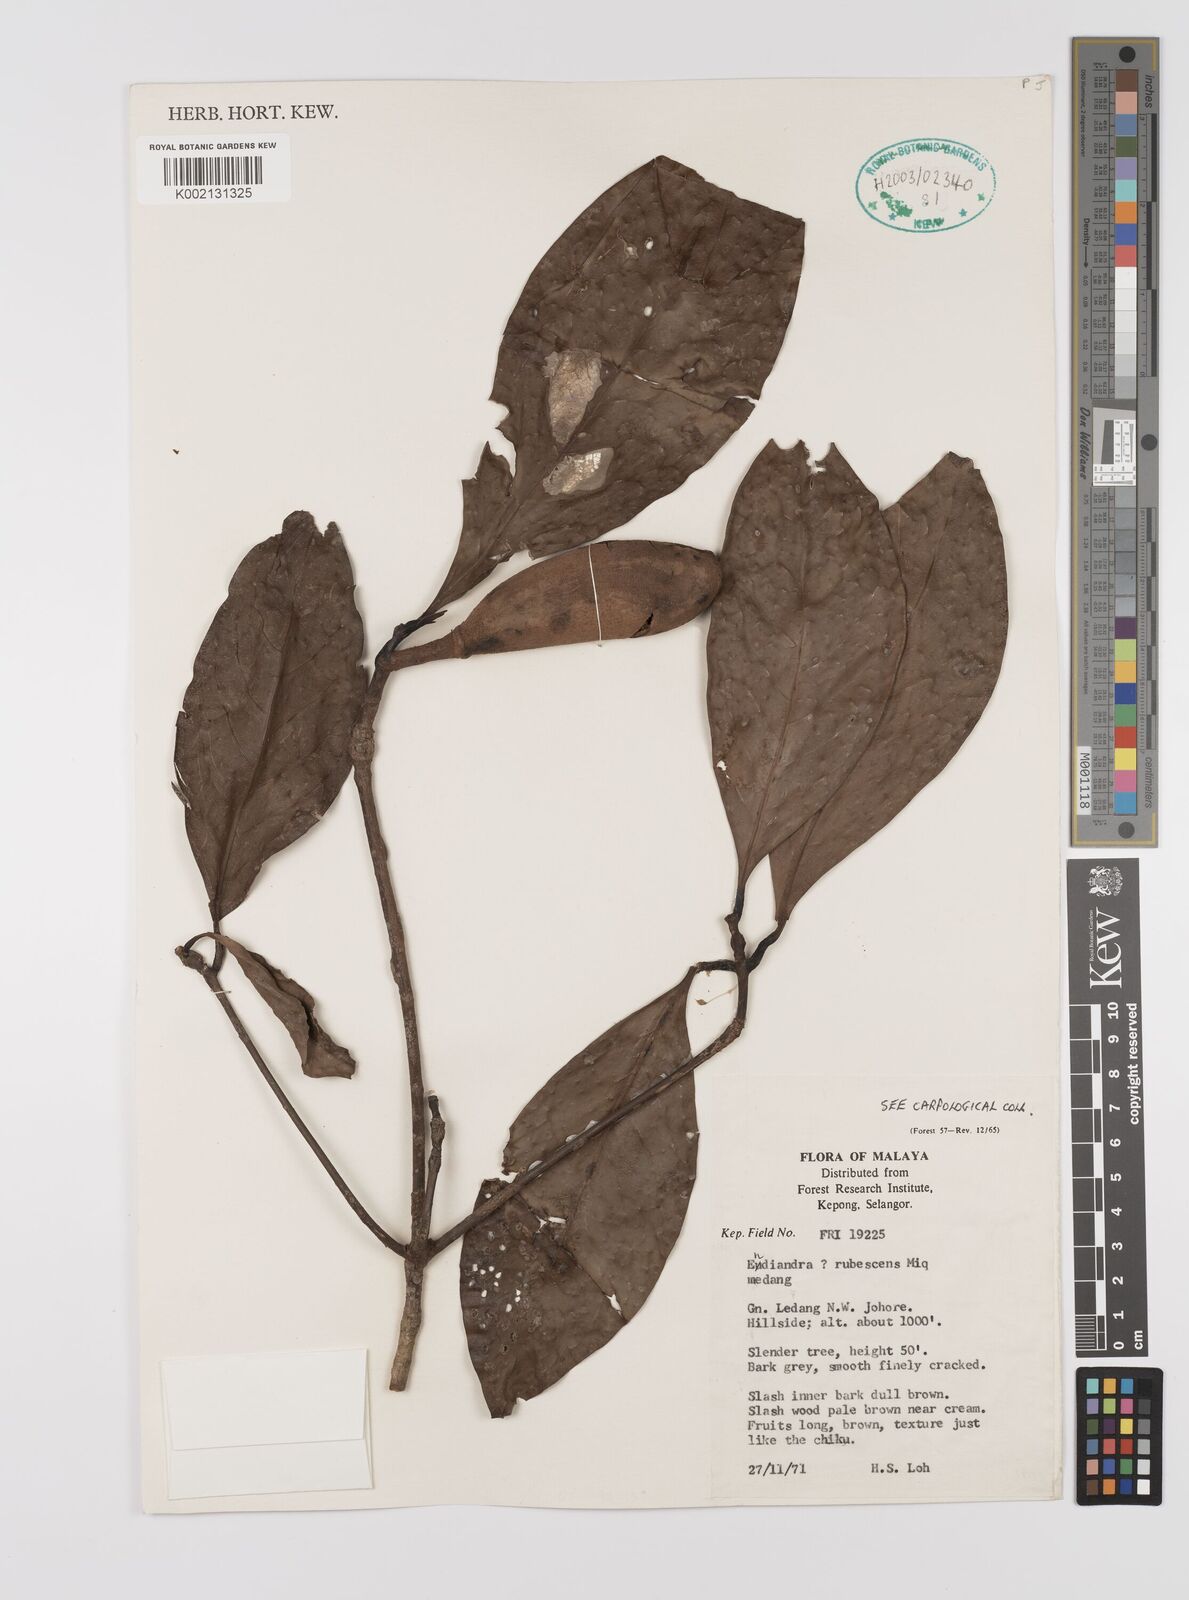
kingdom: Plantae
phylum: Tracheophyta
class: Magnoliopsida
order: Laurales
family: Lauraceae
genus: Endiandra
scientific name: Endiandra rubescens
